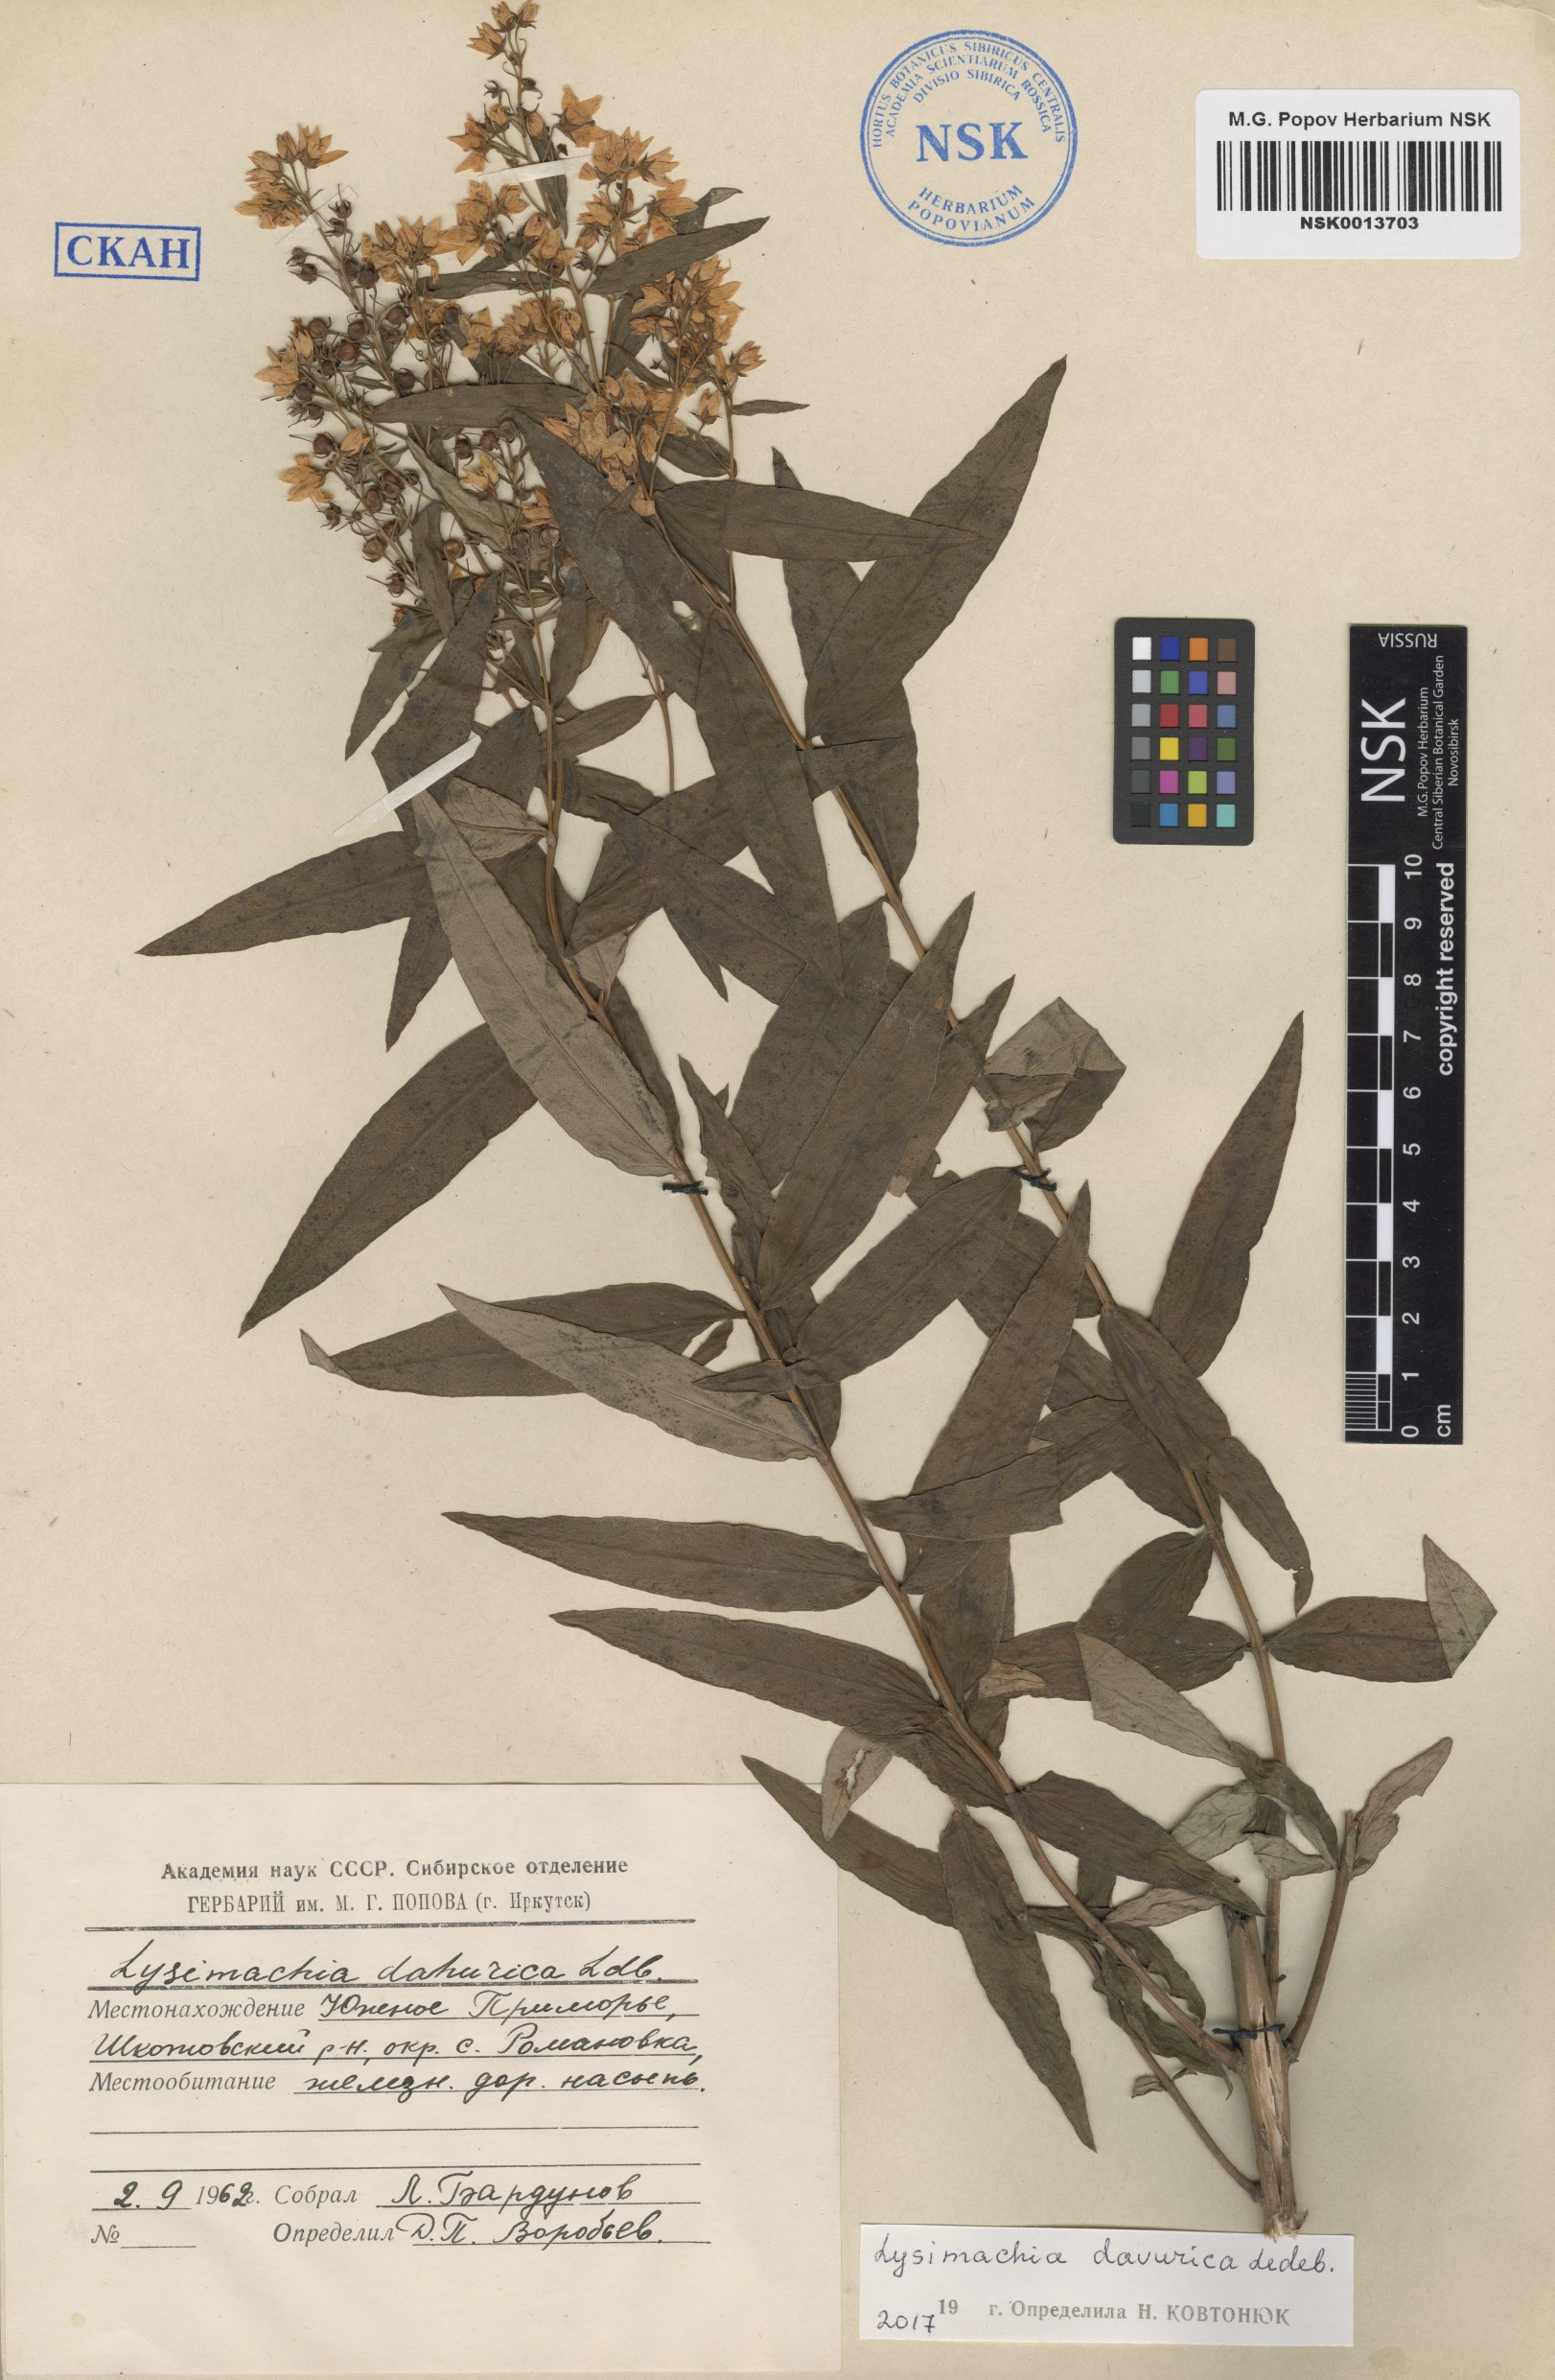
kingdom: Plantae
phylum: Tracheophyta
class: Magnoliopsida
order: Ericales
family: Primulaceae
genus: Lysimachia
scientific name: Lysimachia davurica
